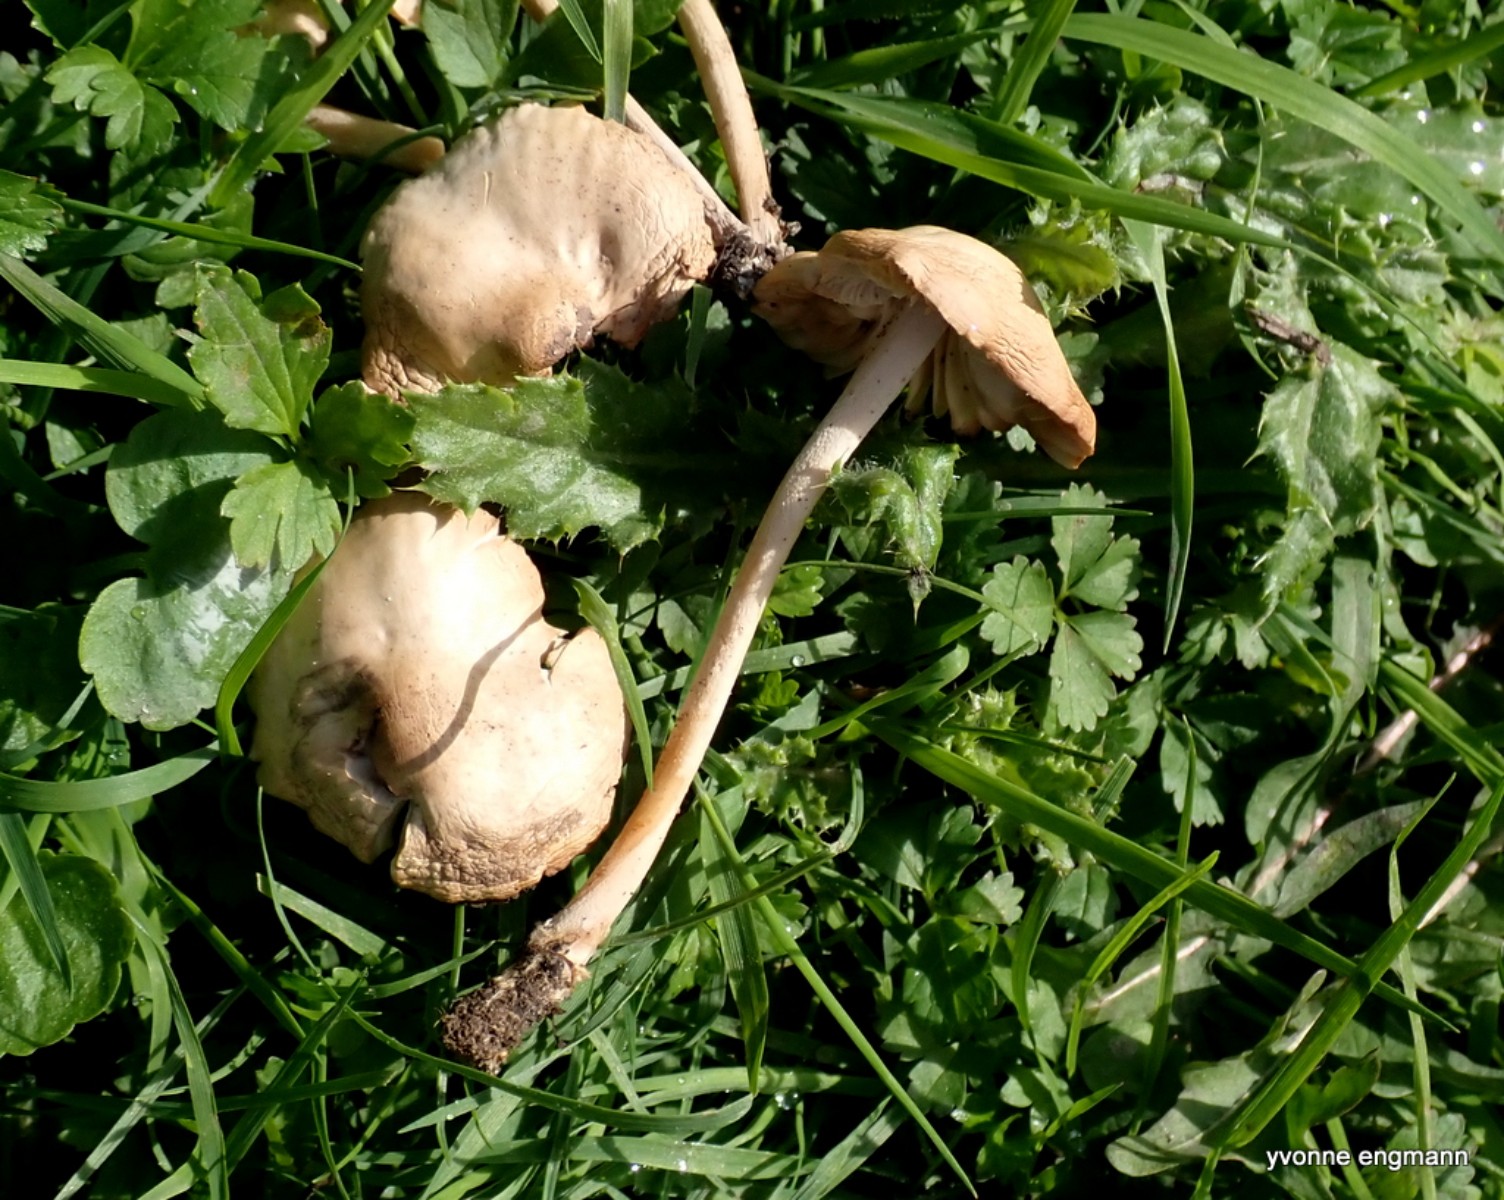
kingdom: Fungi
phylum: Basidiomycota
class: Agaricomycetes
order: Agaricales
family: Marasmiaceae
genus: Marasmius
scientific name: Marasmius oreades
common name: elledans-bruskhat
